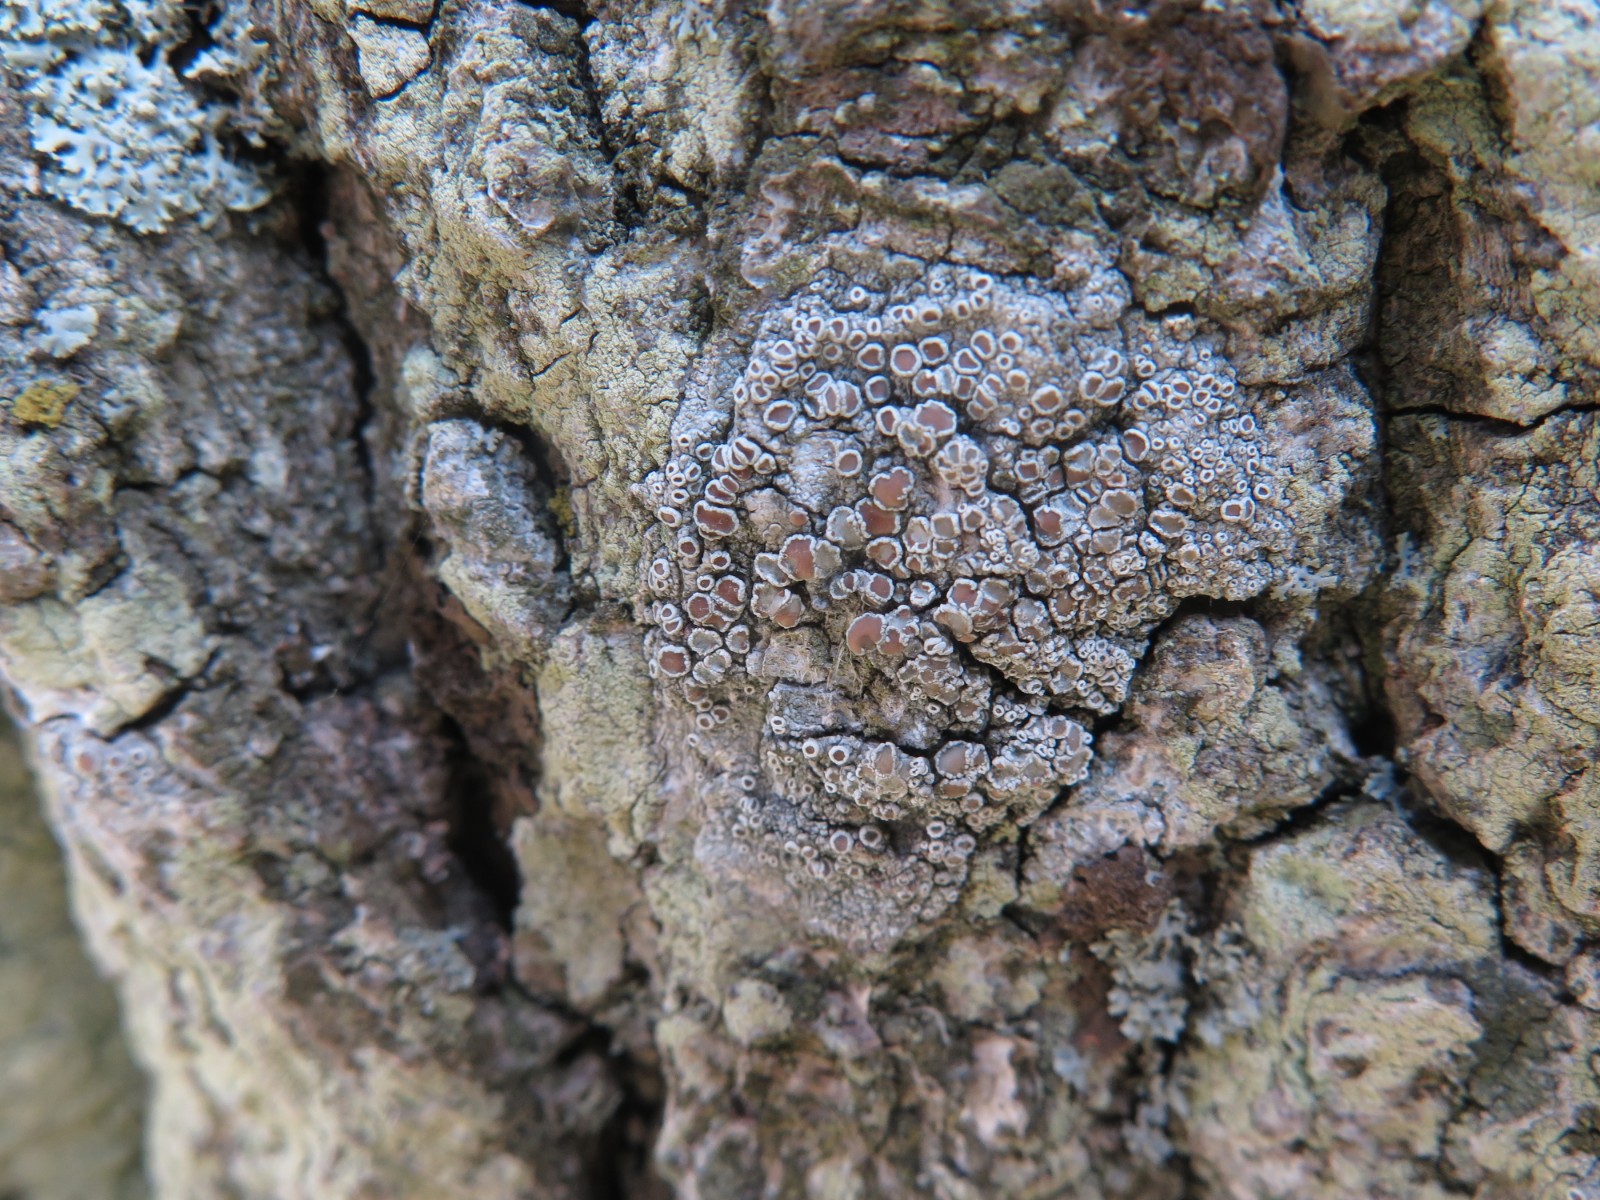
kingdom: Fungi
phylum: Ascomycota
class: Lecanoromycetes
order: Lecanorales
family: Lecanoraceae
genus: Lecanora
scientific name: Lecanora chlarotera
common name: brun kantskivelav
